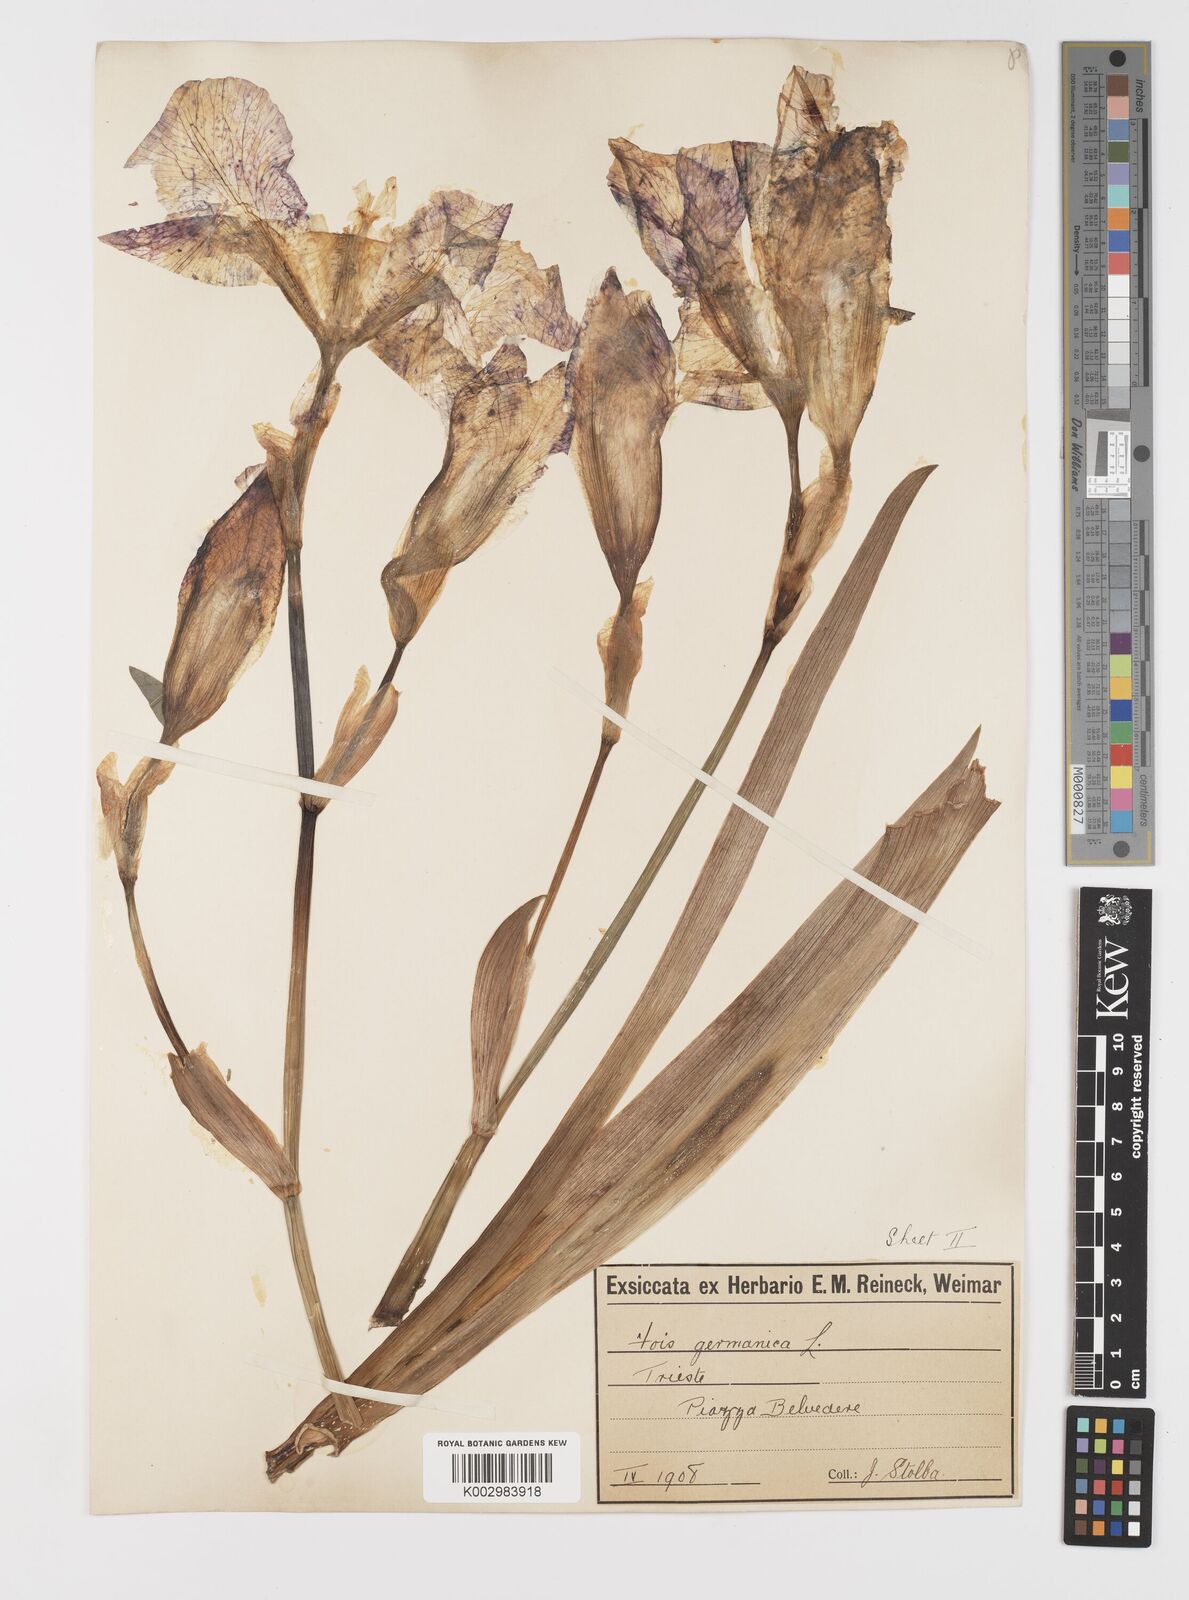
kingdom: Plantae
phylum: Tracheophyta
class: Liliopsida
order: Asparagales
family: Iridaceae
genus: Iris
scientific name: Iris germanica
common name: German iris
